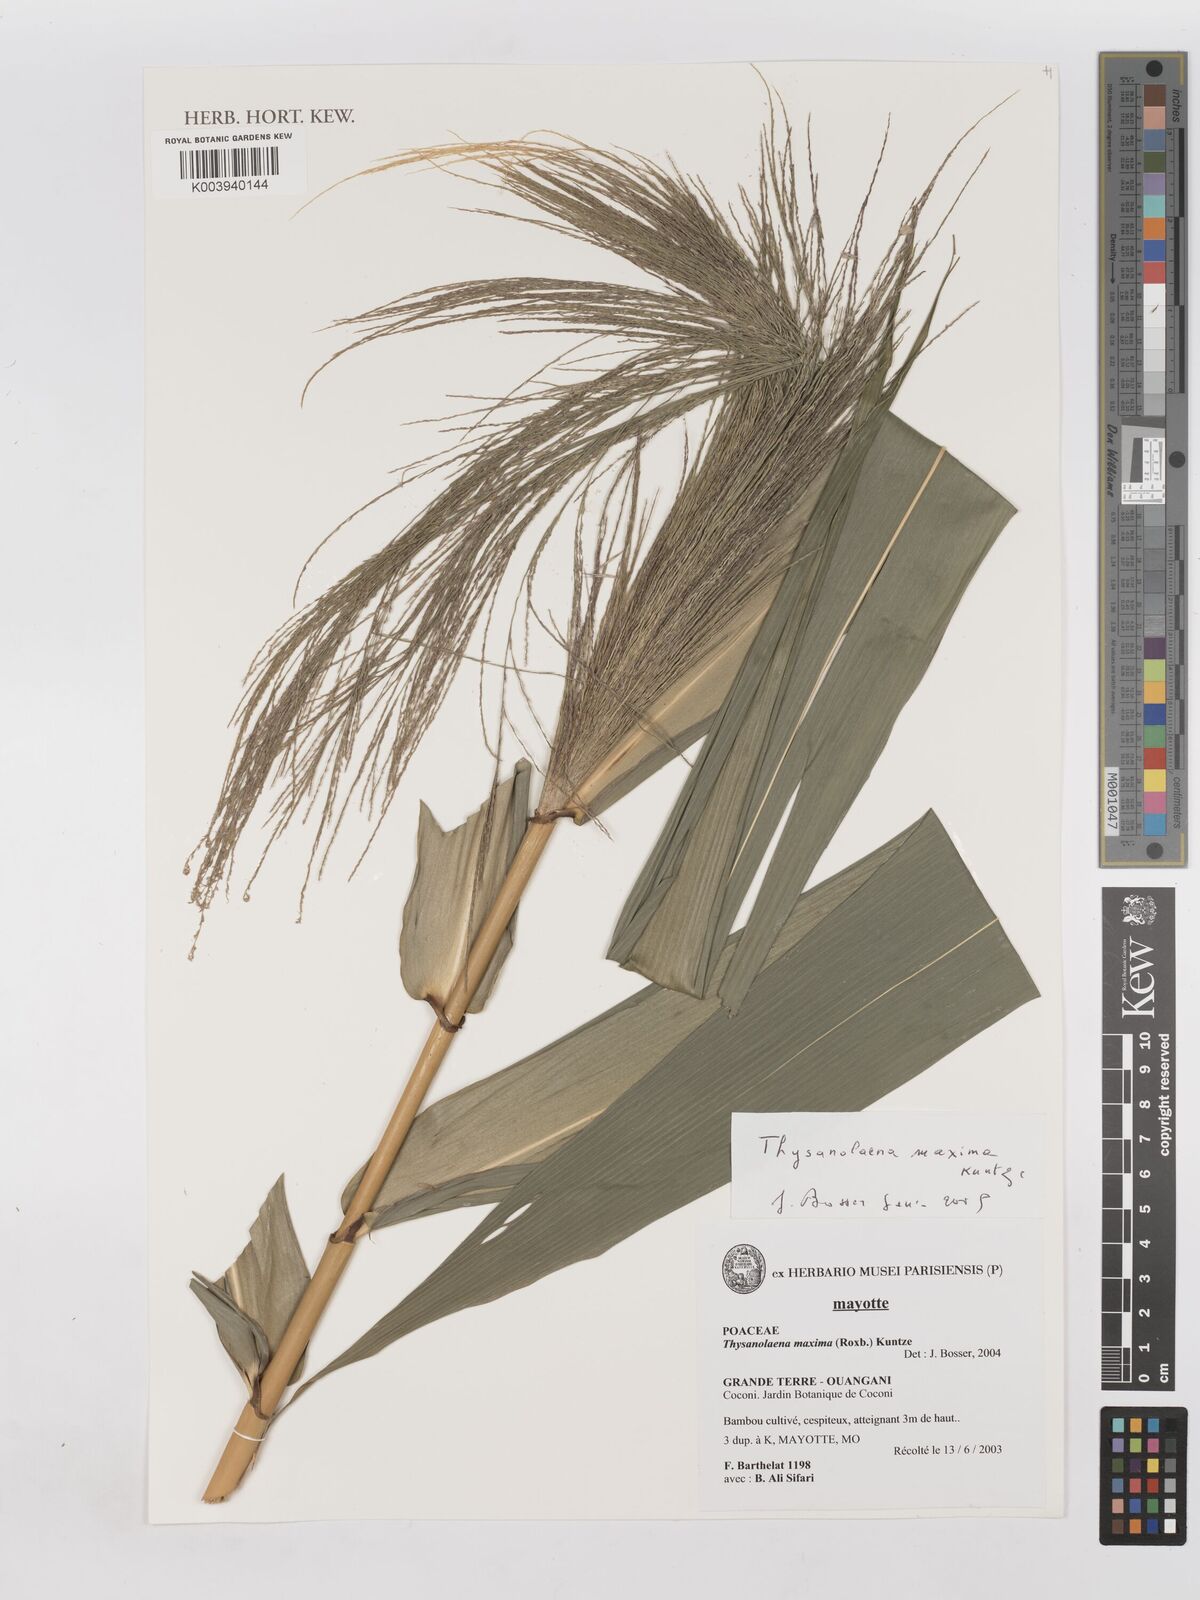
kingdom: Plantae
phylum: Tracheophyta
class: Liliopsida
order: Poales
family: Poaceae
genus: Thysanolaena
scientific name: Thysanolaena latifolia
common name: Tiger grass
